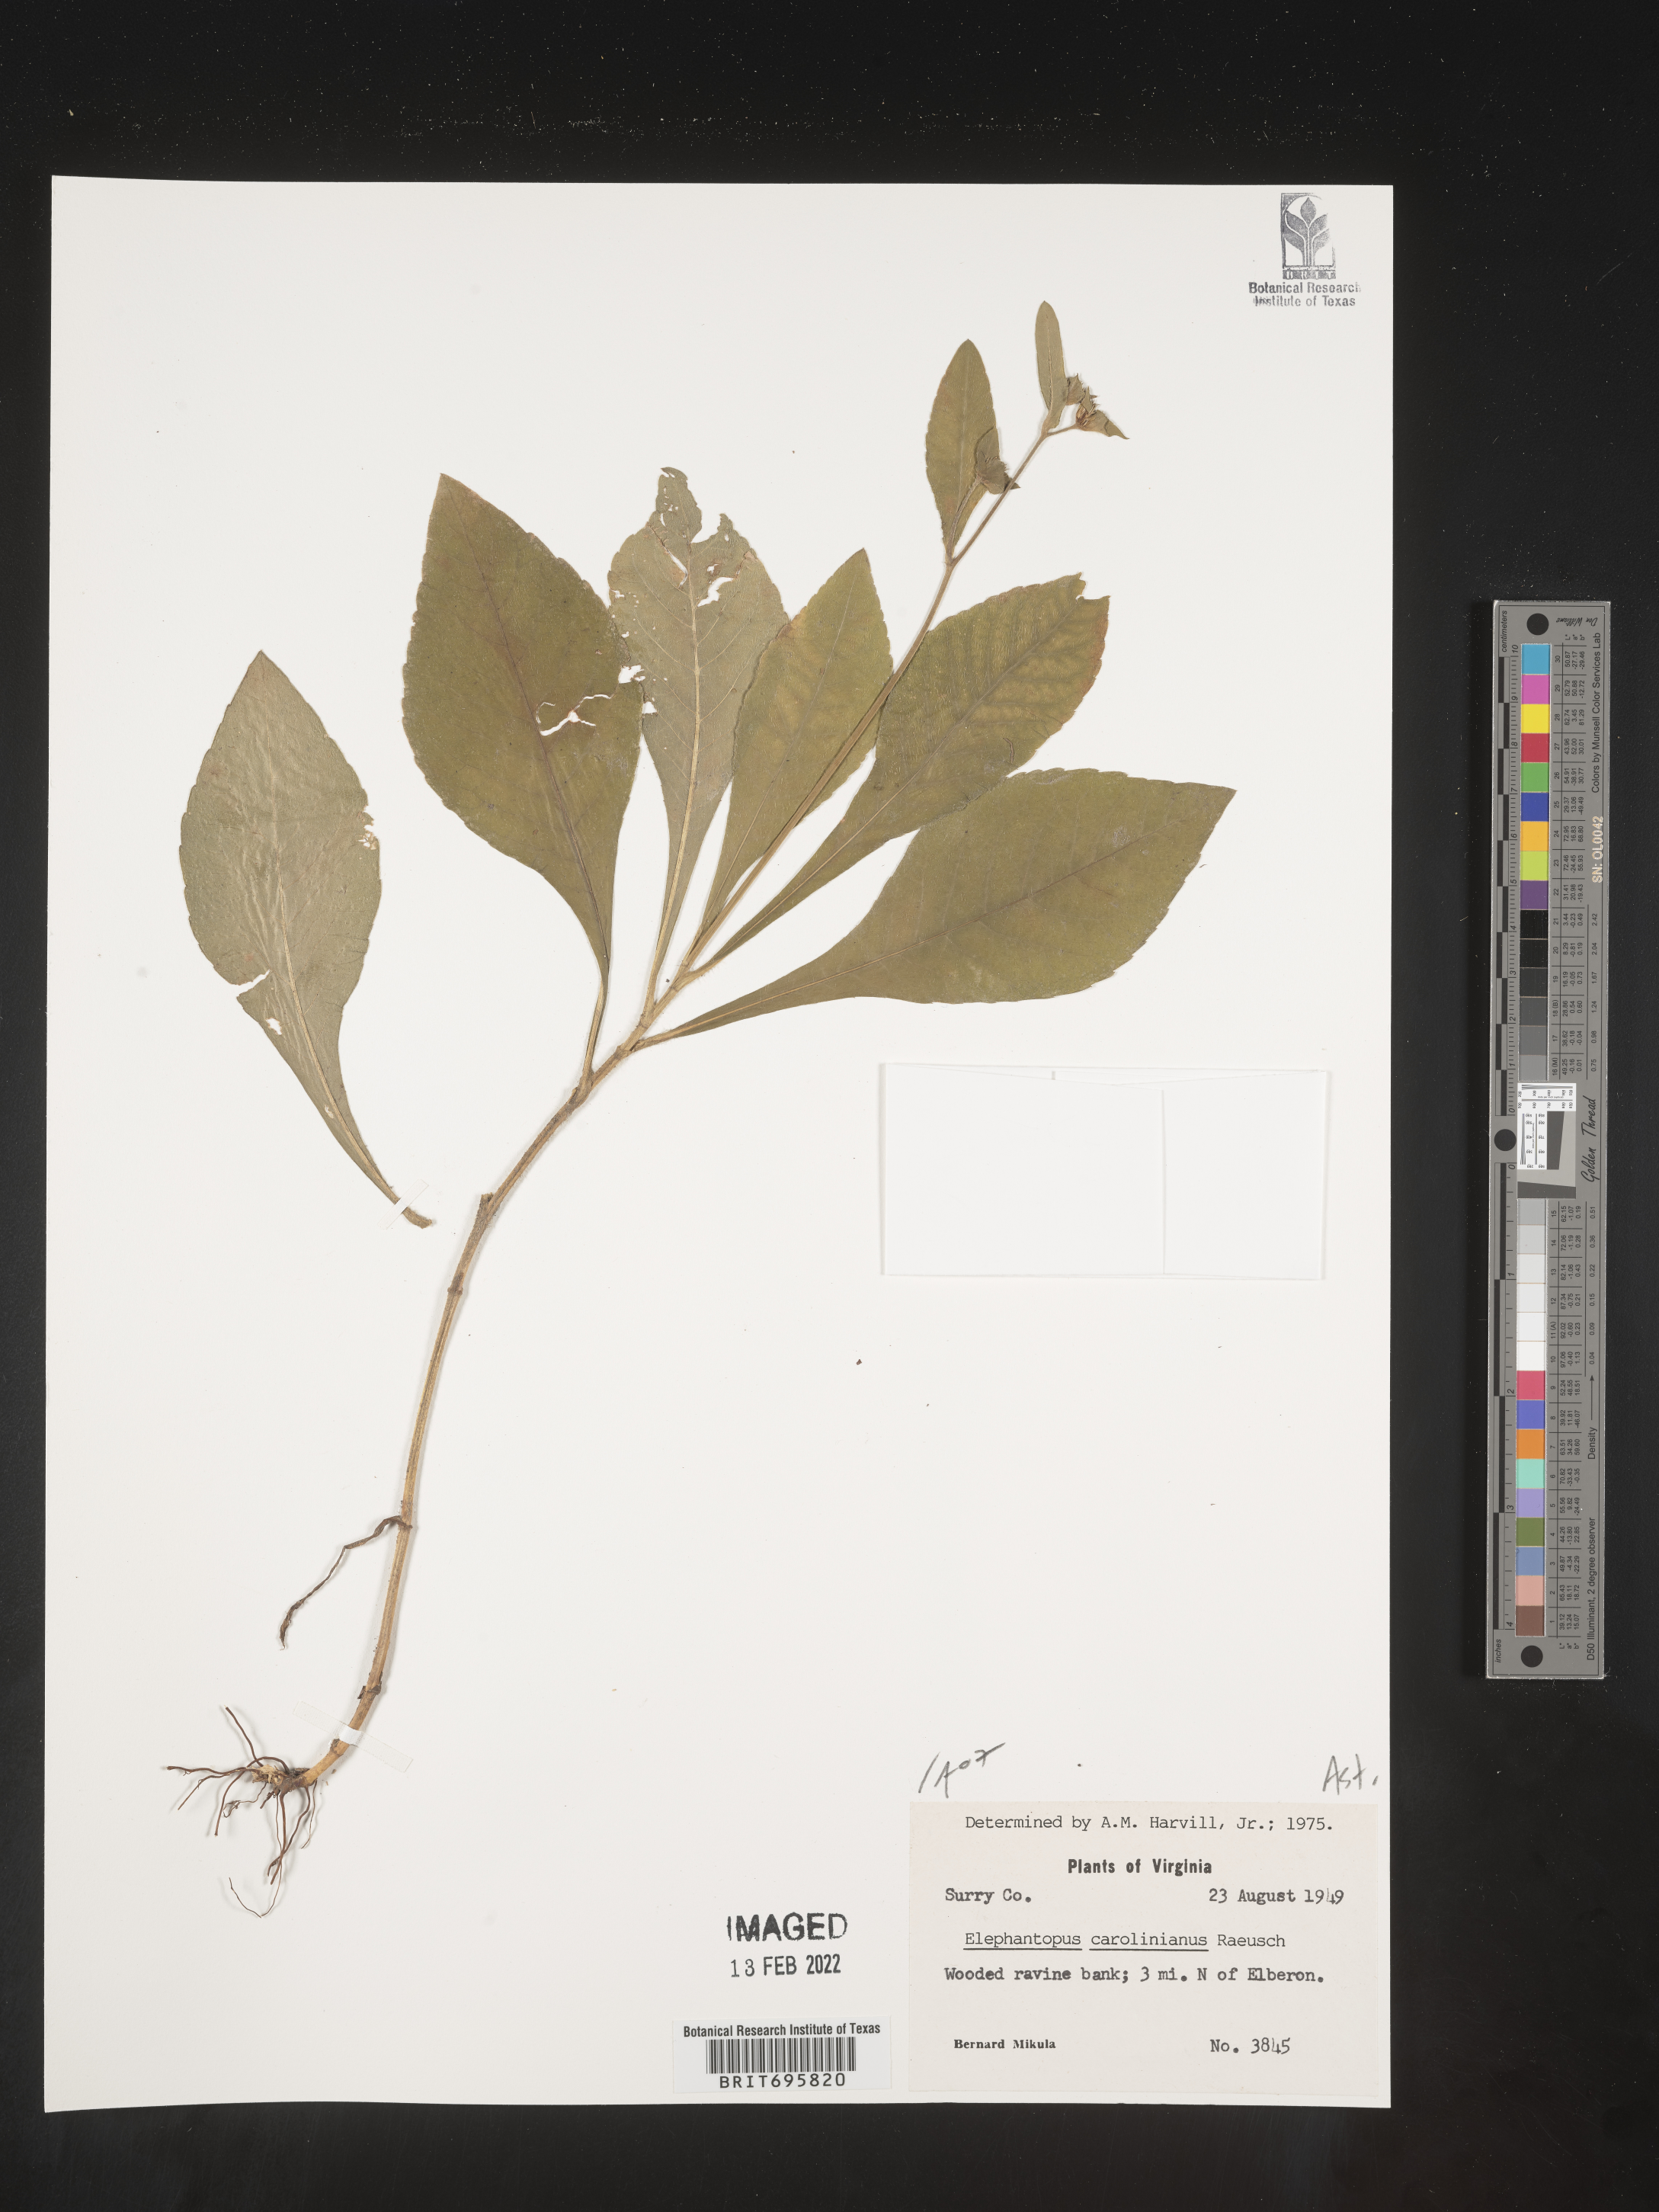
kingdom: Plantae
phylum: Tracheophyta
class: Magnoliopsida
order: Asterales
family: Asteraceae
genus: Elephantopus
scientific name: Elephantopus carolinianus
